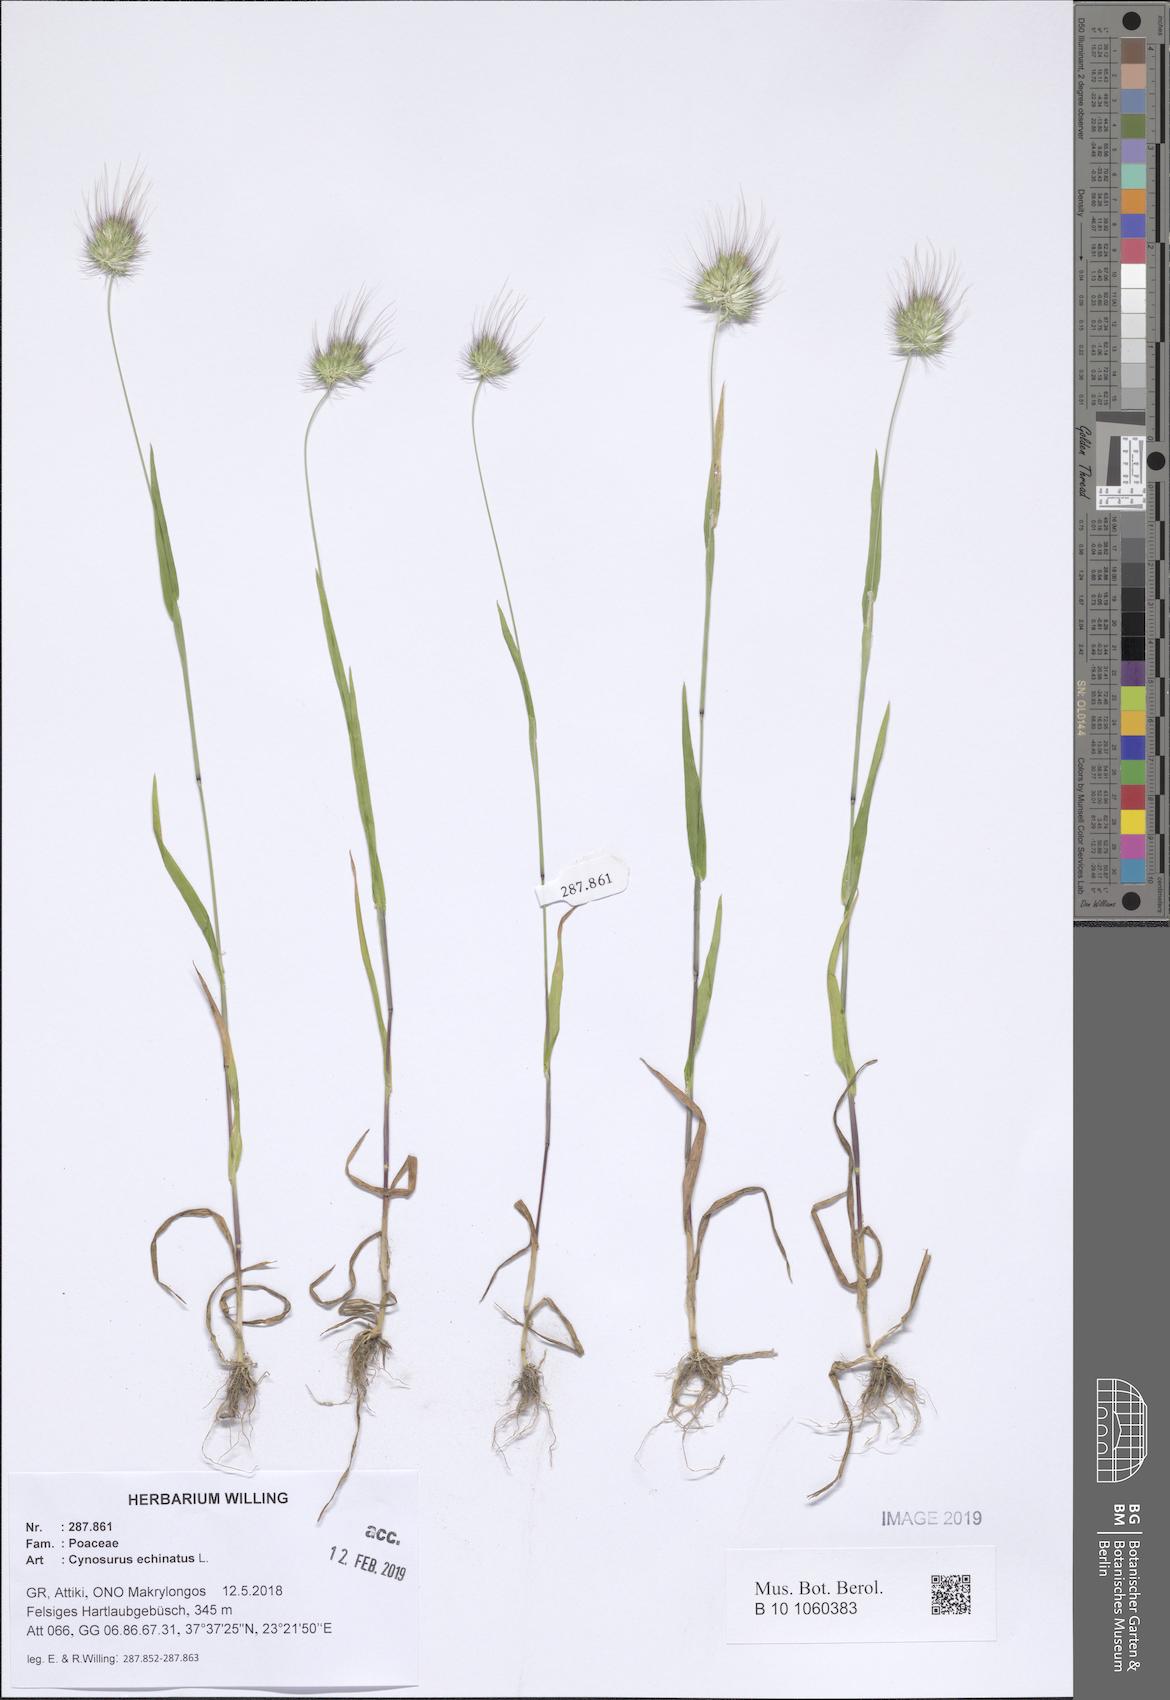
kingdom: Plantae
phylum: Tracheophyta
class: Liliopsida
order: Poales
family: Poaceae
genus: Cynosurus
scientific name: Cynosurus echinatus
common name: Rough dog's-tail
